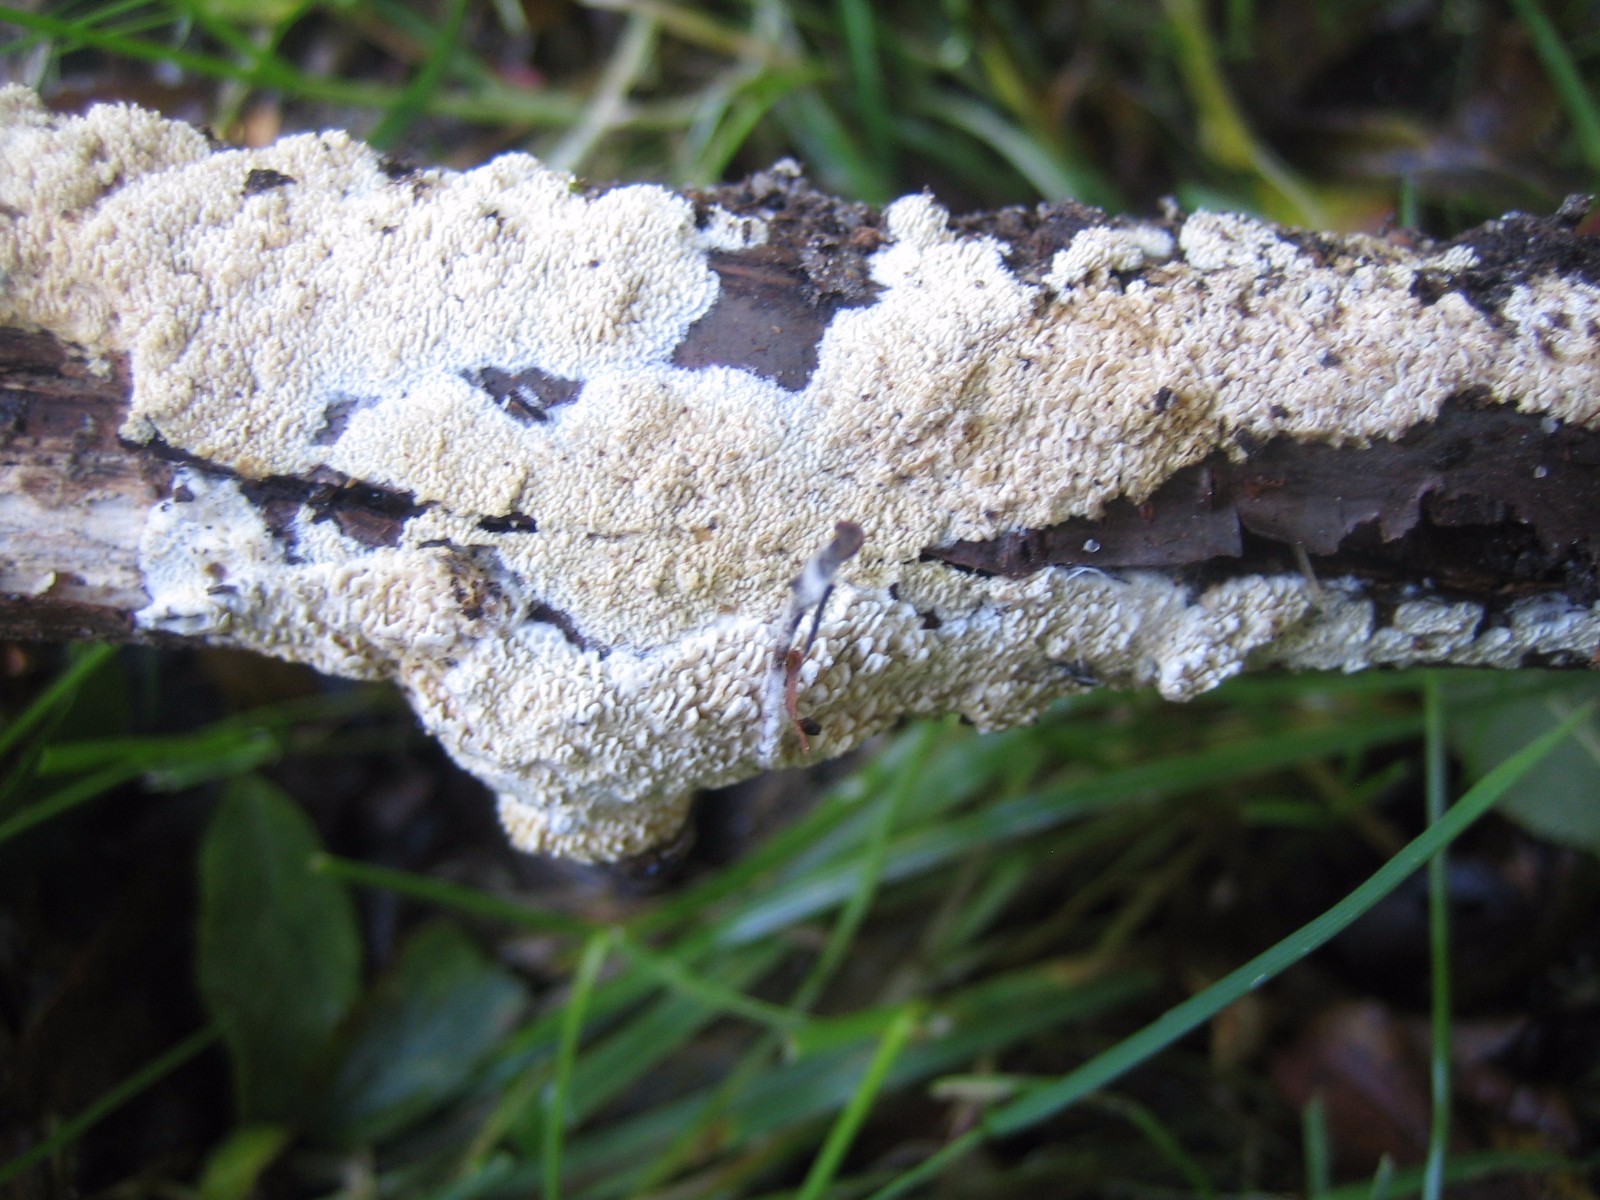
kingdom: Fungi
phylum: Basidiomycota
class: Agaricomycetes
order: Hymenochaetales
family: Schizoporaceae
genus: Schizopora
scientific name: Schizopora paradoxa
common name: hvid tandsvamp
